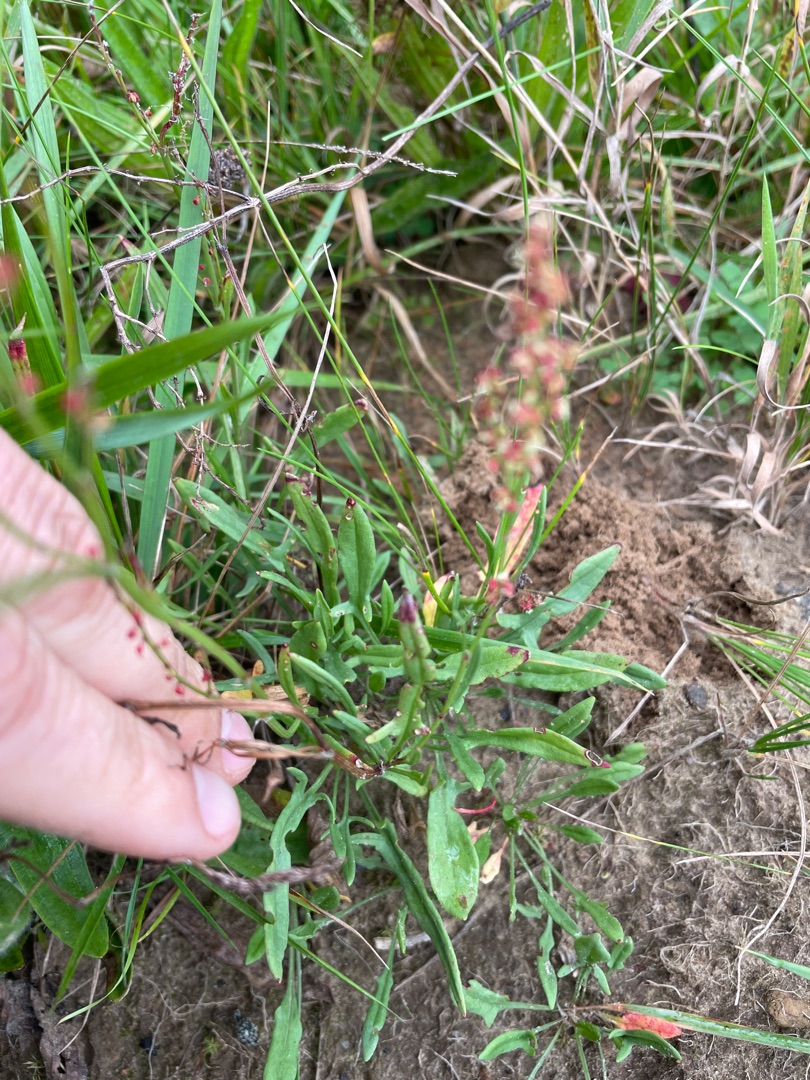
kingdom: Plantae
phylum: Tracheophyta
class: Magnoliopsida
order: Caryophyllales
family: Polygonaceae
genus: Rumex
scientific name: Rumex acetosella
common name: Rødknæ
